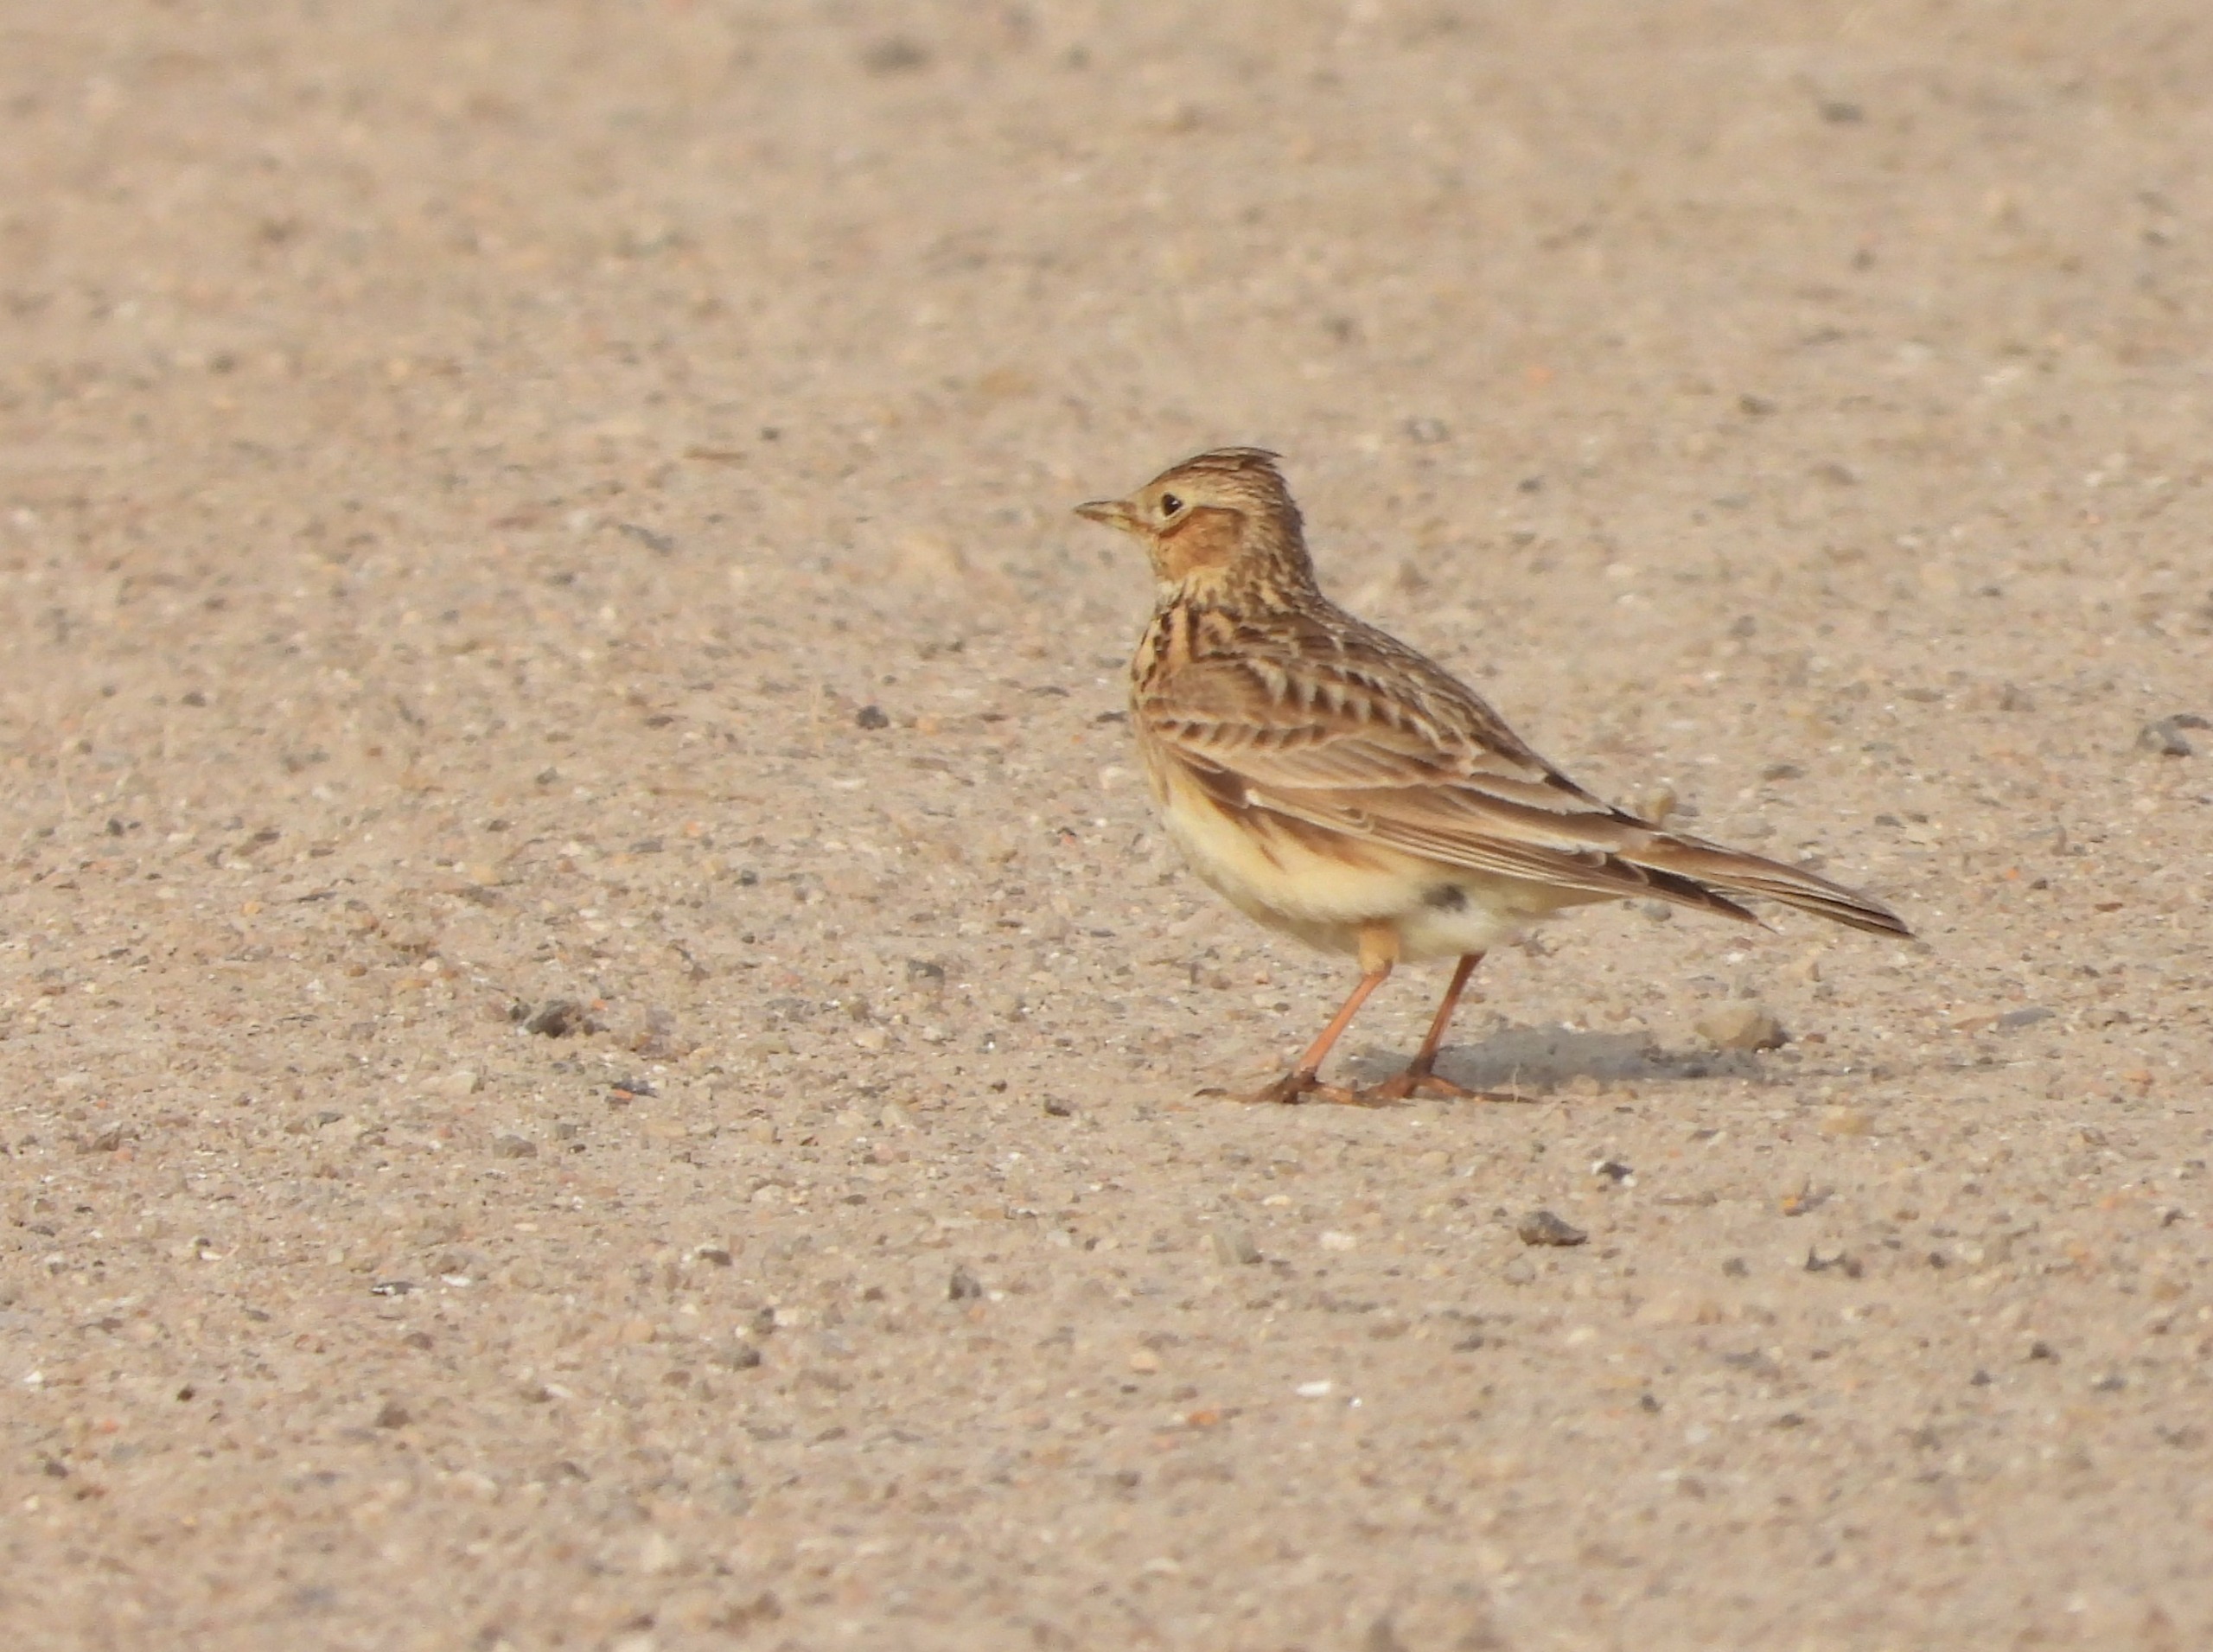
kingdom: Animalia
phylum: Chordata
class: Aves
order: Passeriformes
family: Alaudidae
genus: Alauda
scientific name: Alauda arvensis
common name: Sanglærke
